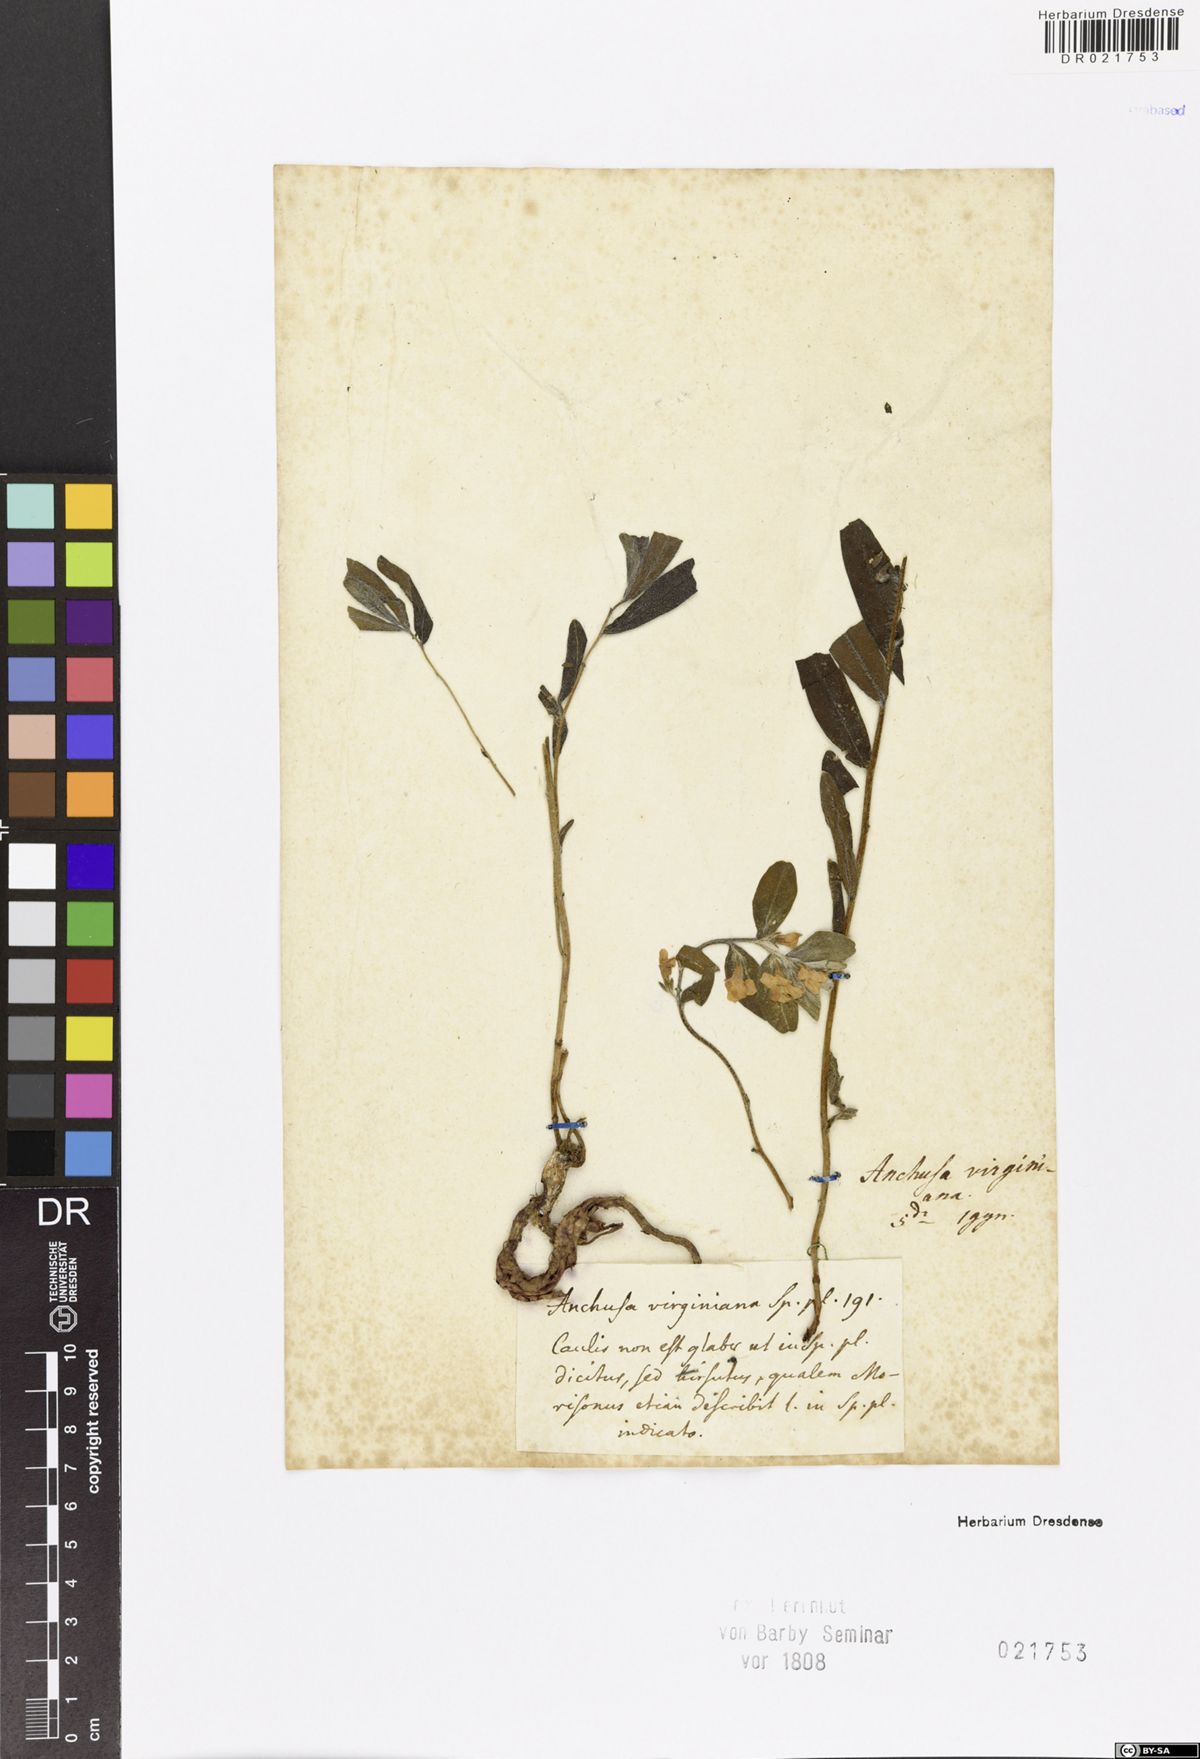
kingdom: Plantae
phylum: Tracheophyta
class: Magnoliopsida
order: Boraginales
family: Boraginaceae
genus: Lithospermum
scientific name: Lithospermum caroliniense
